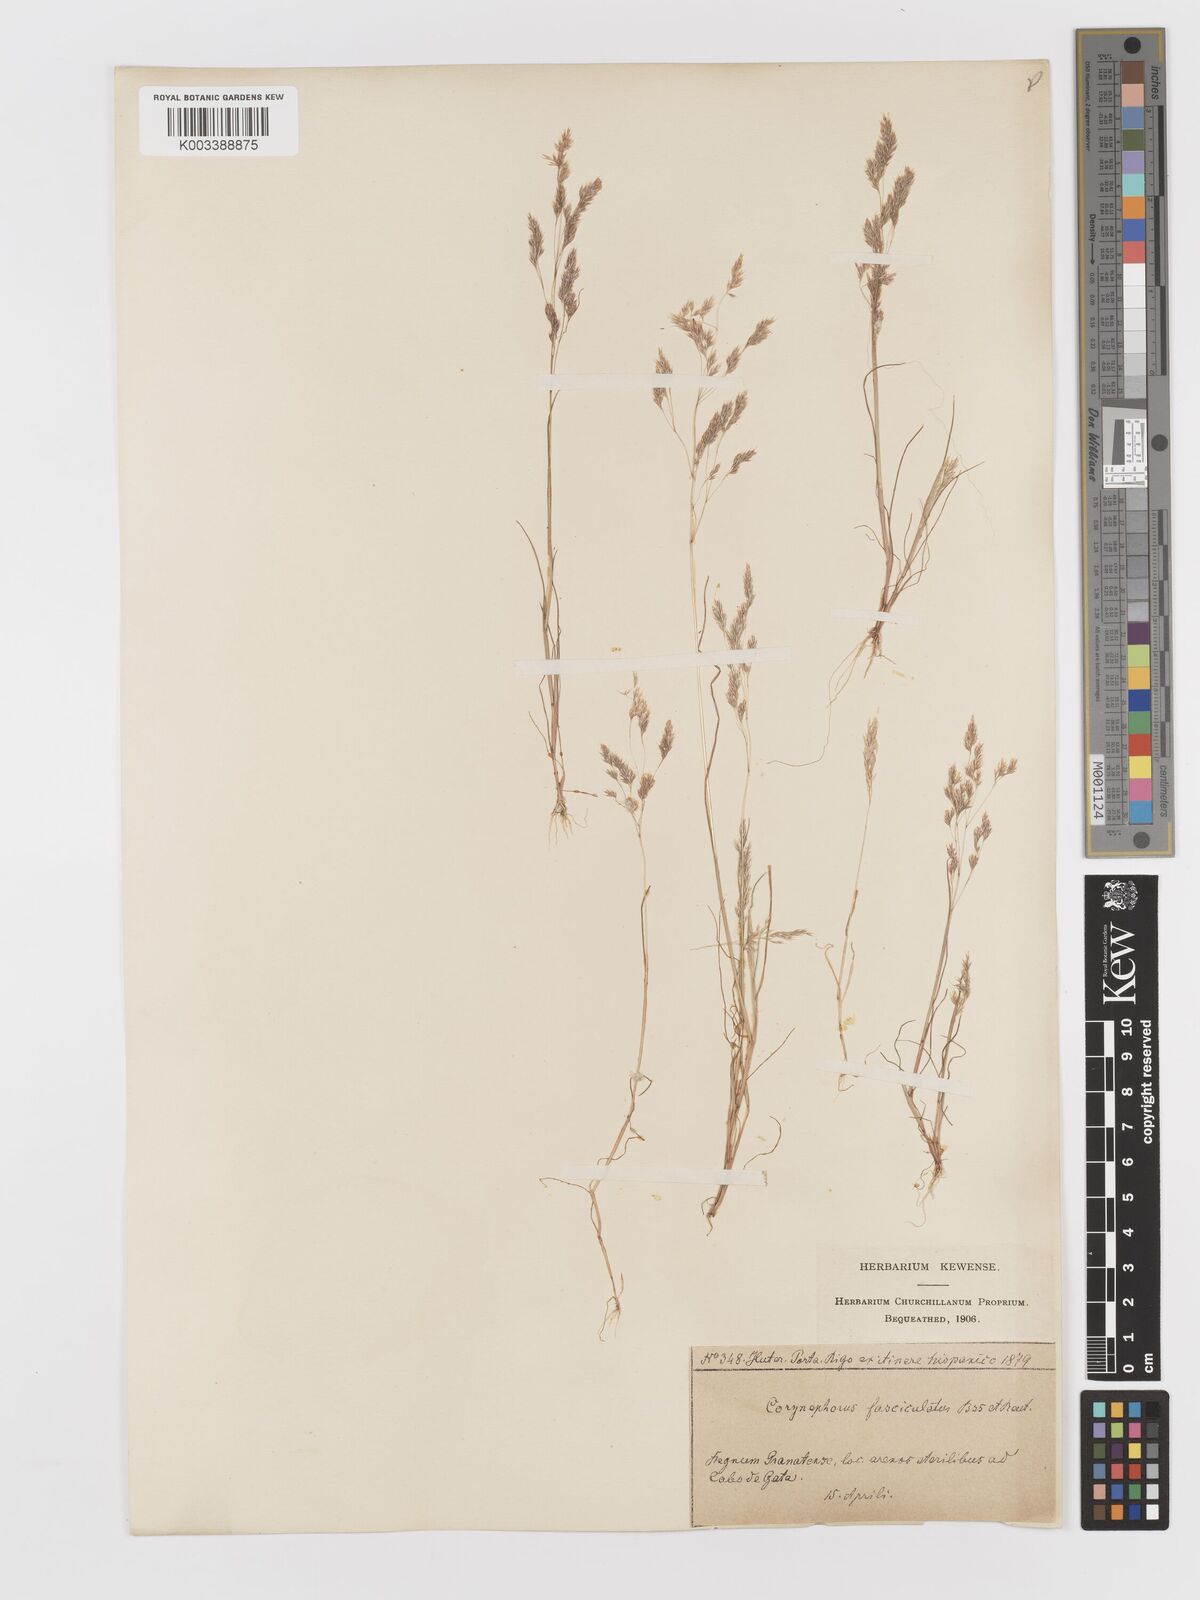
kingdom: Plantae
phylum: Tracheophyta
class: Liliopsida
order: Poales
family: Poaceae
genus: Corynephorus
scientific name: Corynephorus fasciculatus
